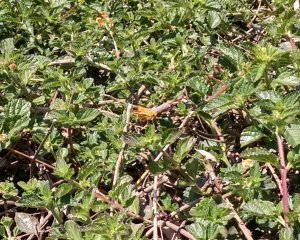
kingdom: Animalia
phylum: Arthropoda
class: Insecta
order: Lepidoptera
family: Hesperiidae
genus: Hylephila
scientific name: Hylephila phyleus
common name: Fiery Skipper
